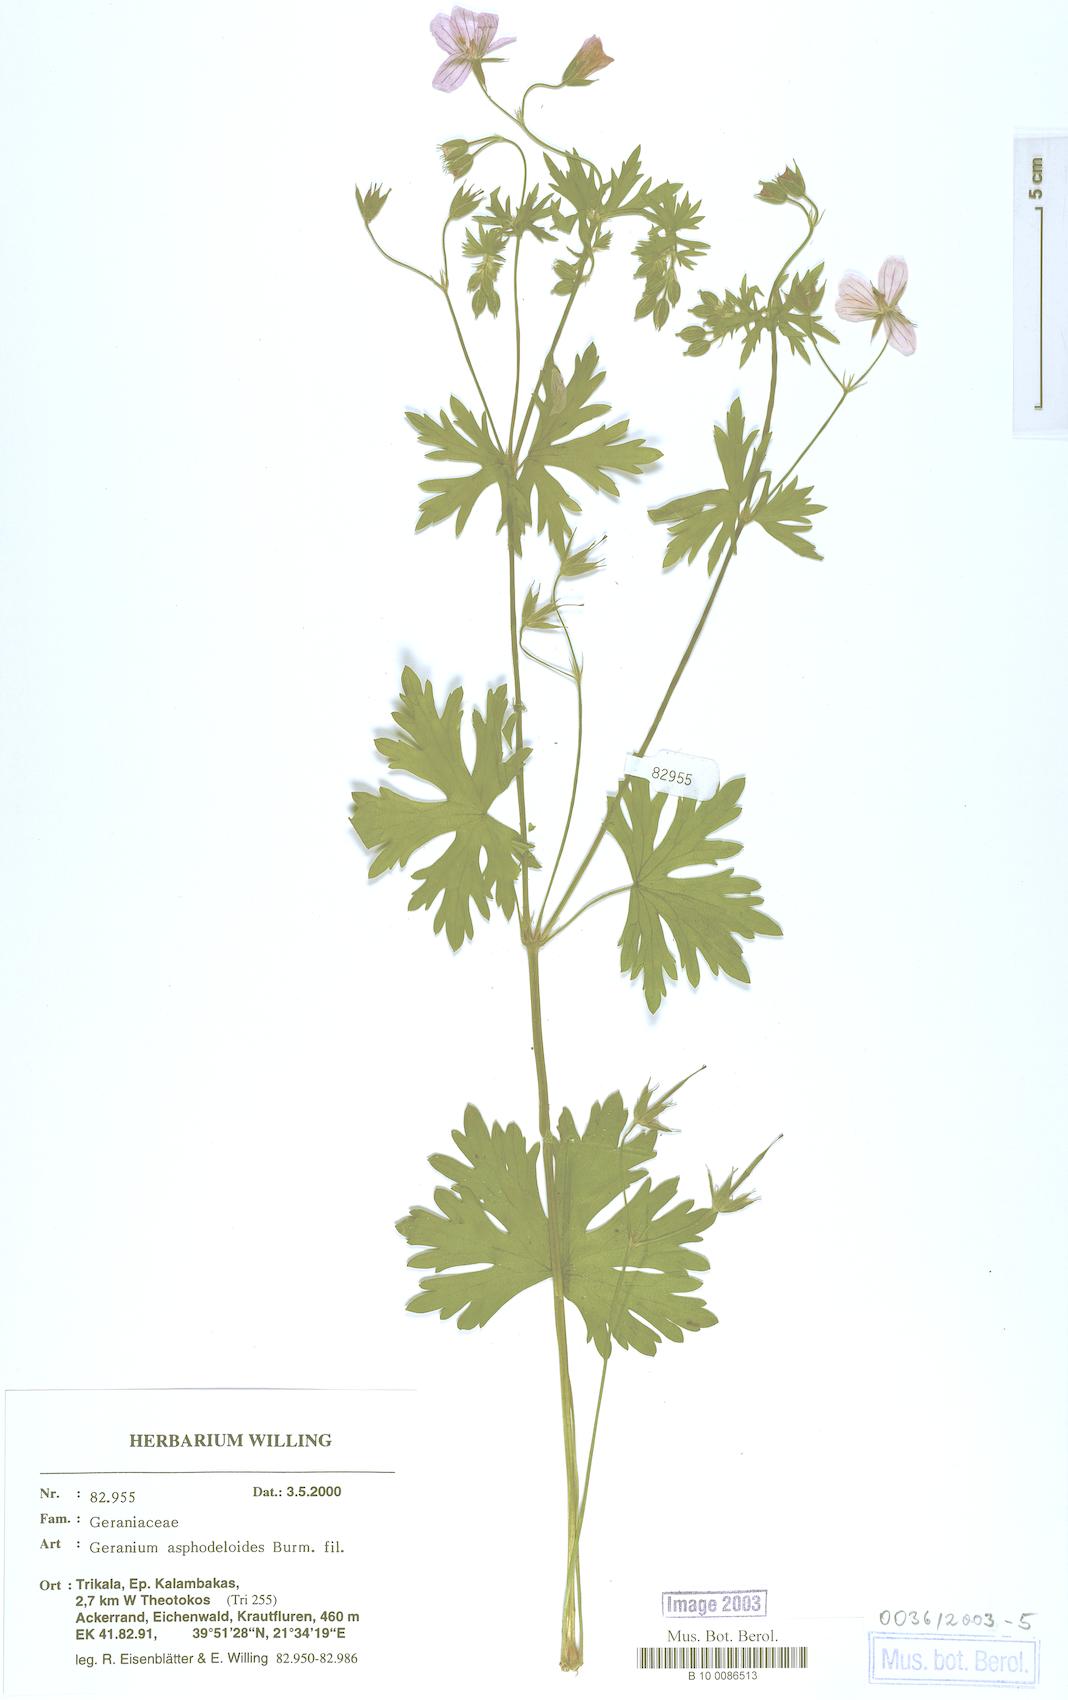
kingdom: Plantae
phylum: Tracheophyta
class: Magnoliopsida
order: Geraniales
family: Geraniaceae
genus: Geranium
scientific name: Geranium asphodeloides
